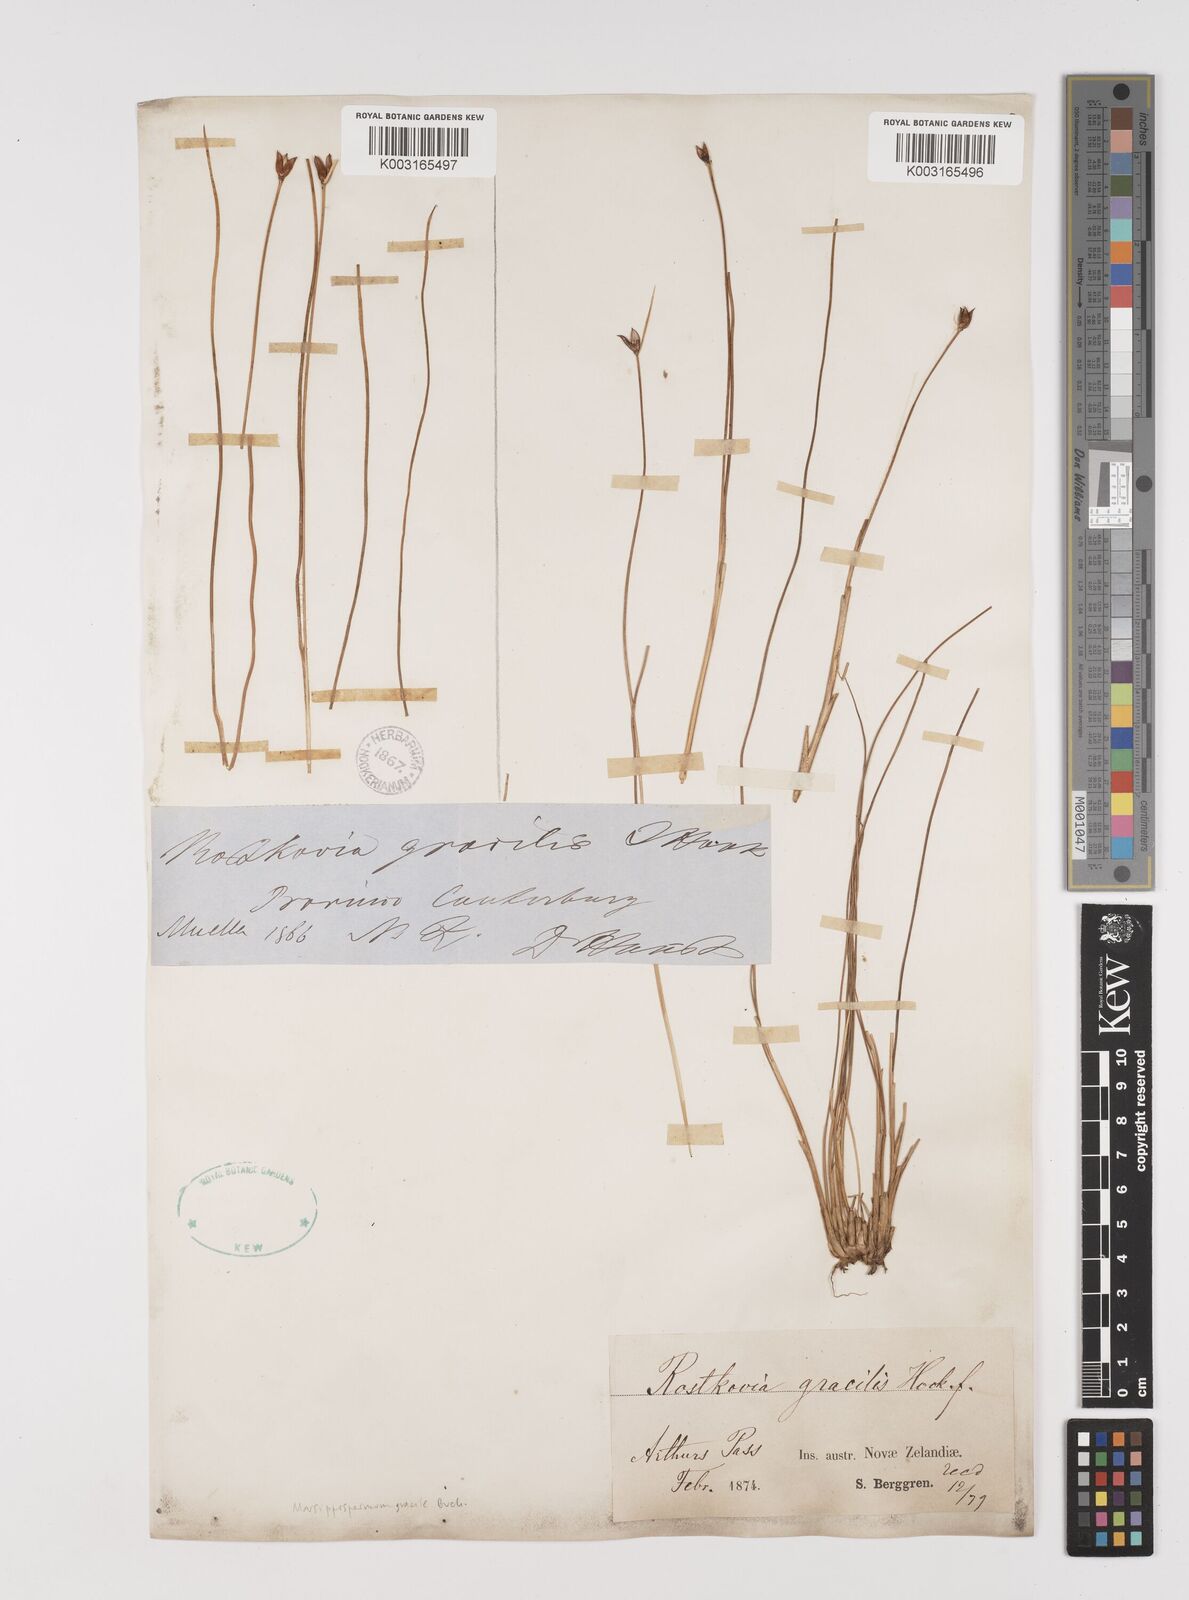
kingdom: Plantae
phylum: Tracheophyta
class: Liliopsida
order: Poales
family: Juncaceae
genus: Rostkovia
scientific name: Rostkovia magellanica
